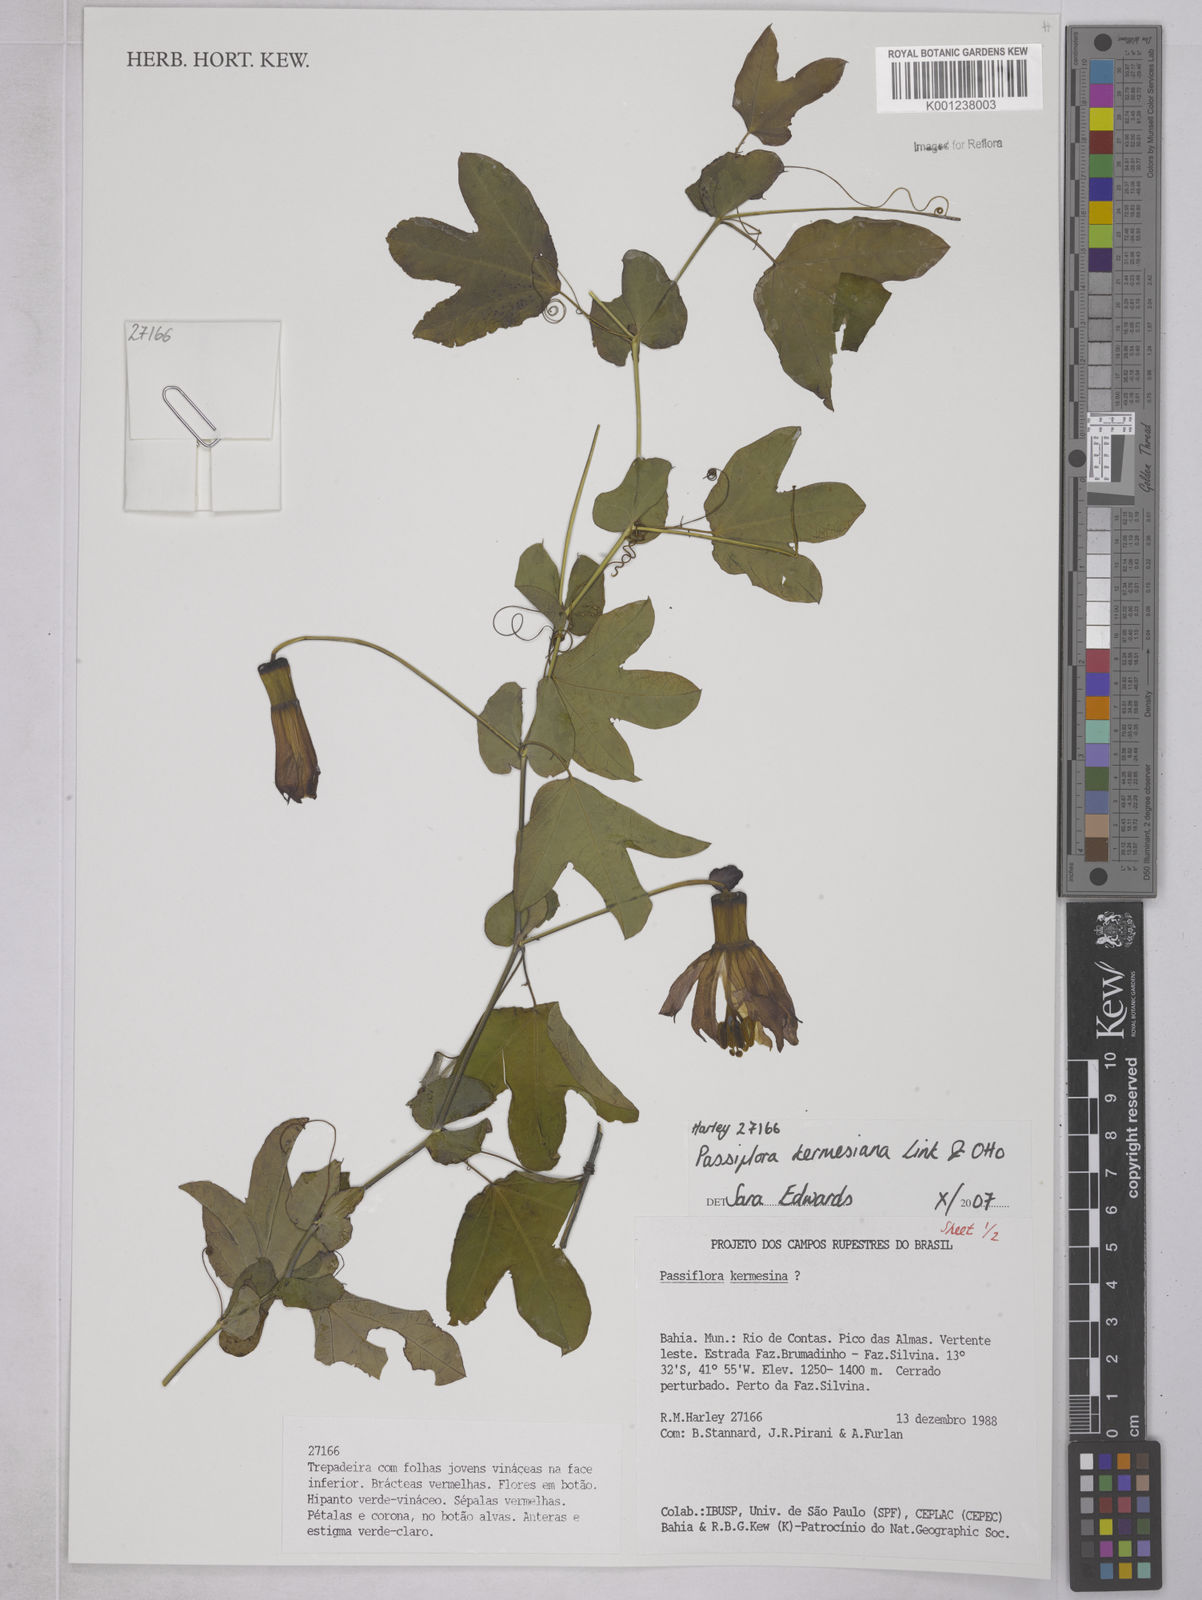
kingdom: Plantae
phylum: Tracheophyta
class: Magnoliopsida
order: Malpighiales
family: Passifloraceae
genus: Passiflora
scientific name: Passiflora kermesina
